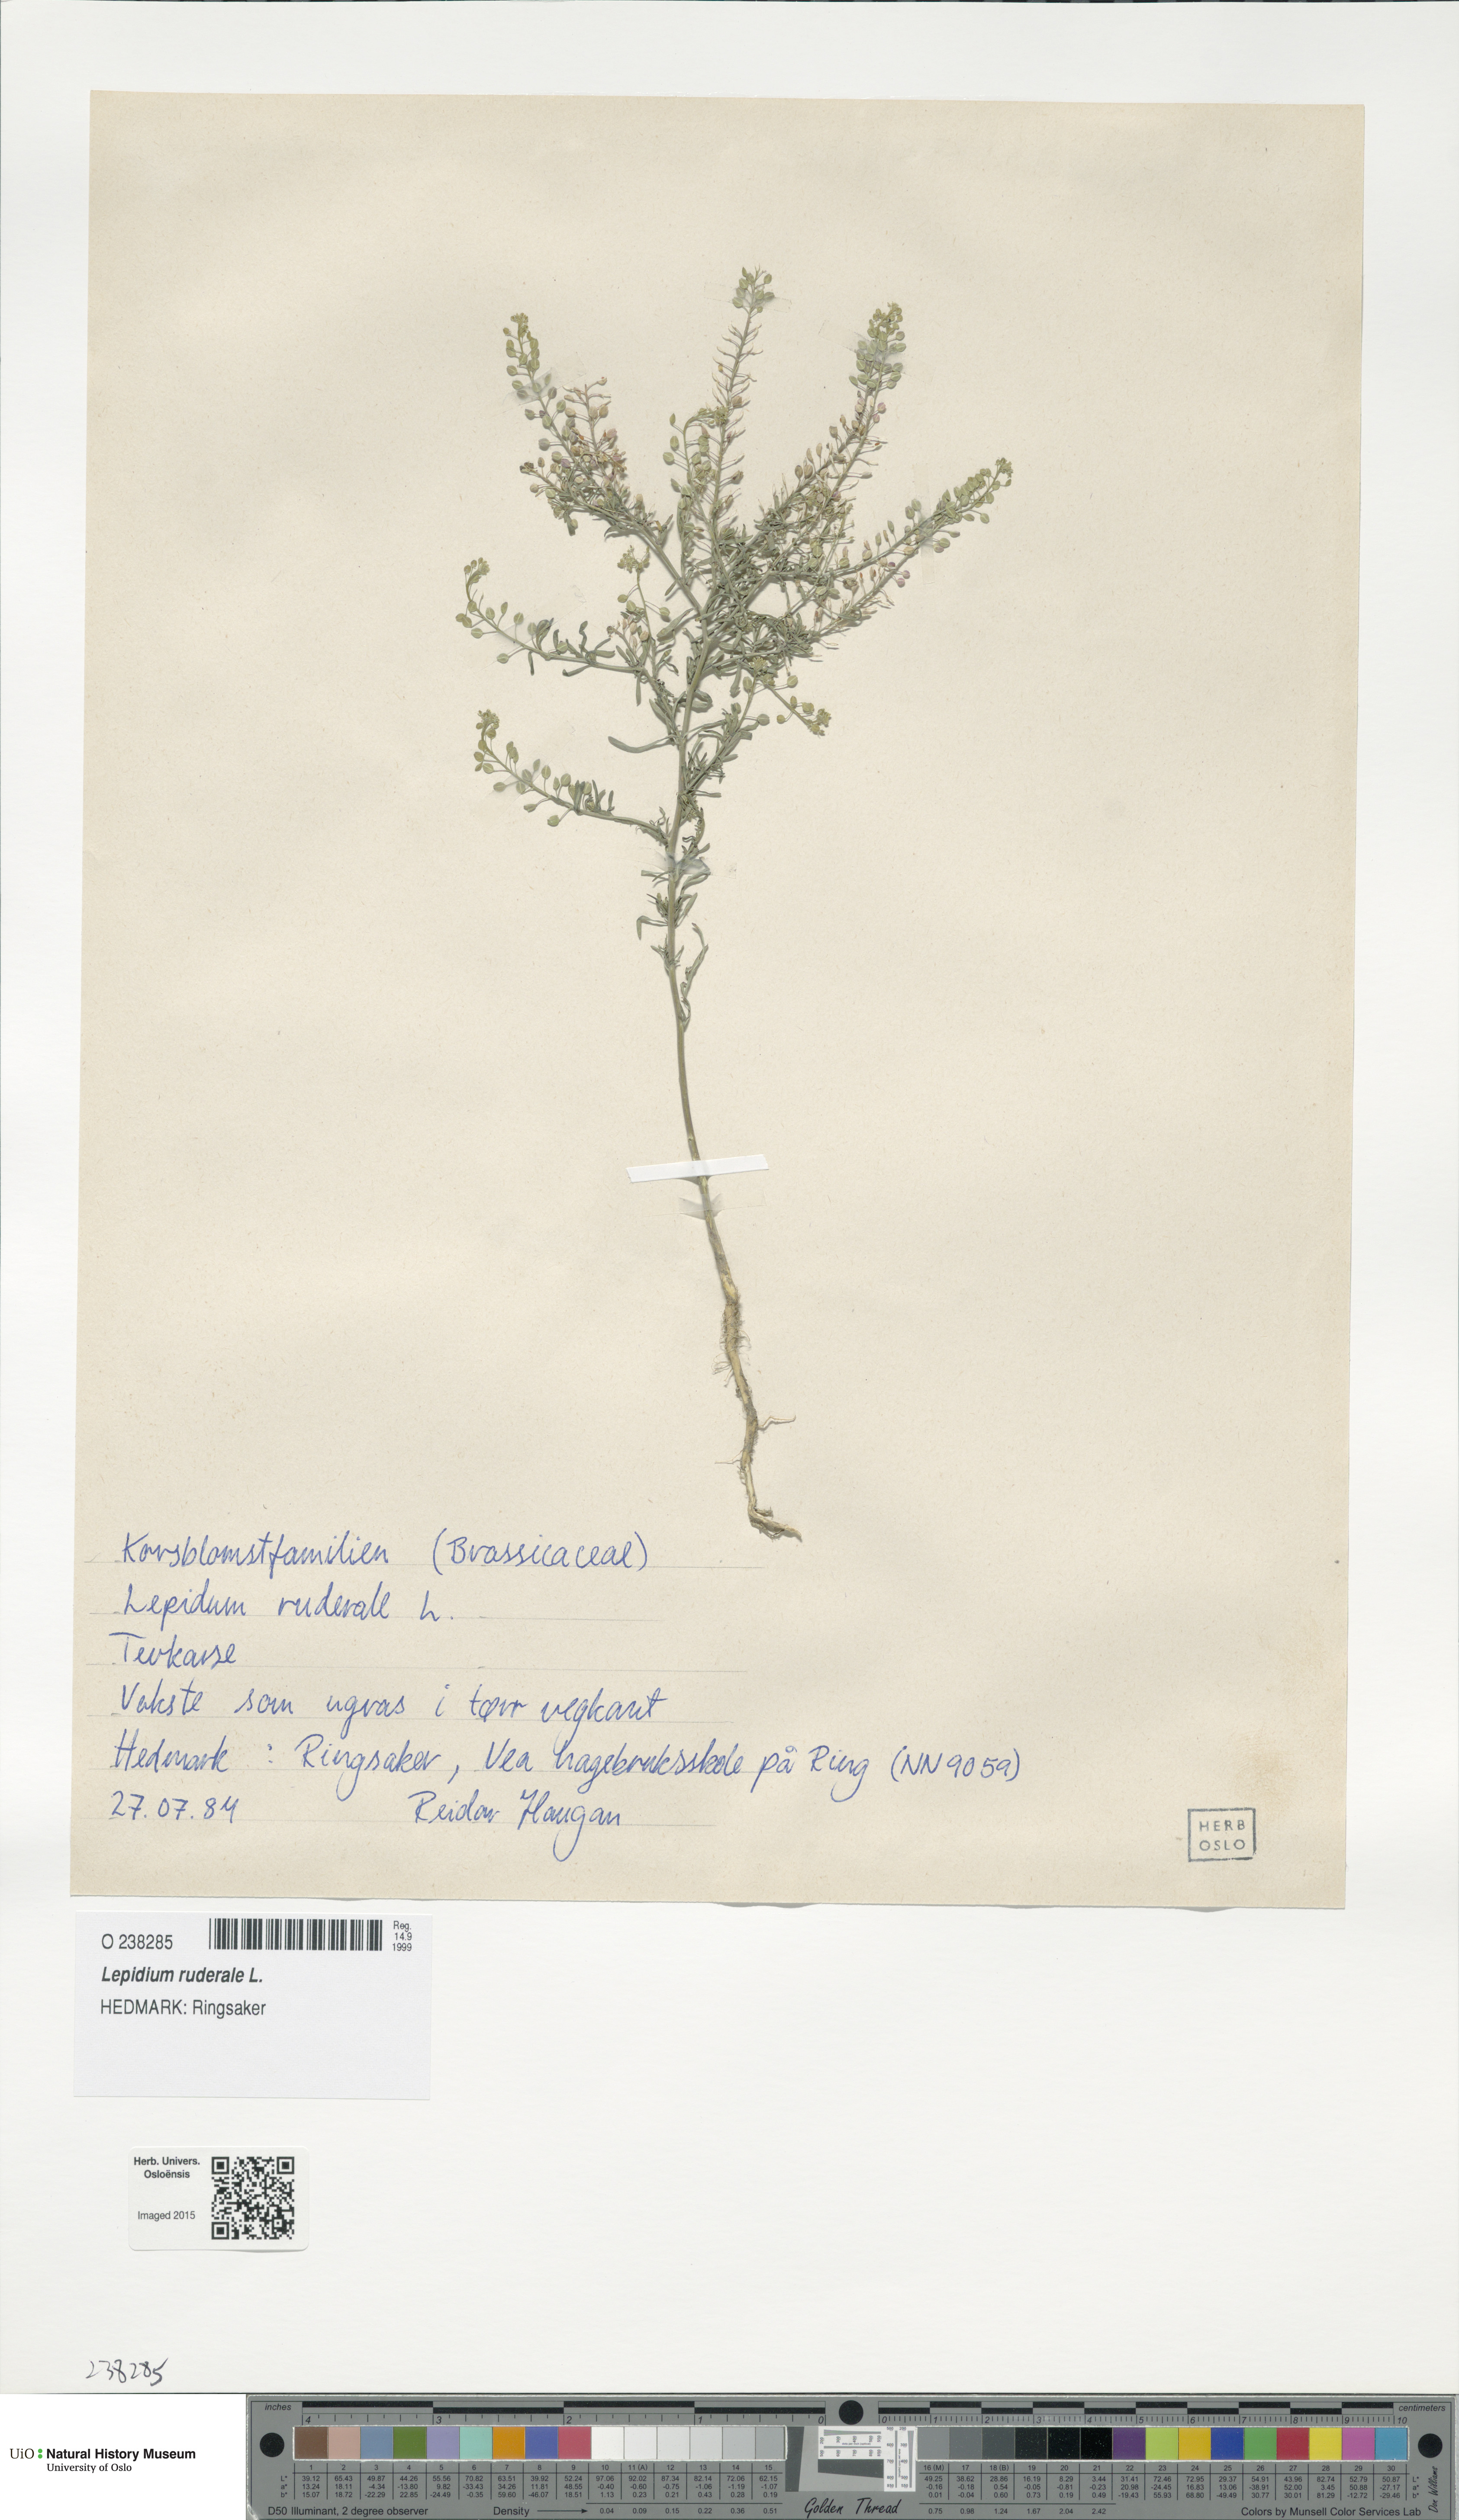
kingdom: Plantae
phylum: Tracheophyta
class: Magnoliopsida
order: Brassicales
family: Brassicaceae
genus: Lepidium
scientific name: Lepidium ruderale
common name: Narrow-leaved pepperwort
